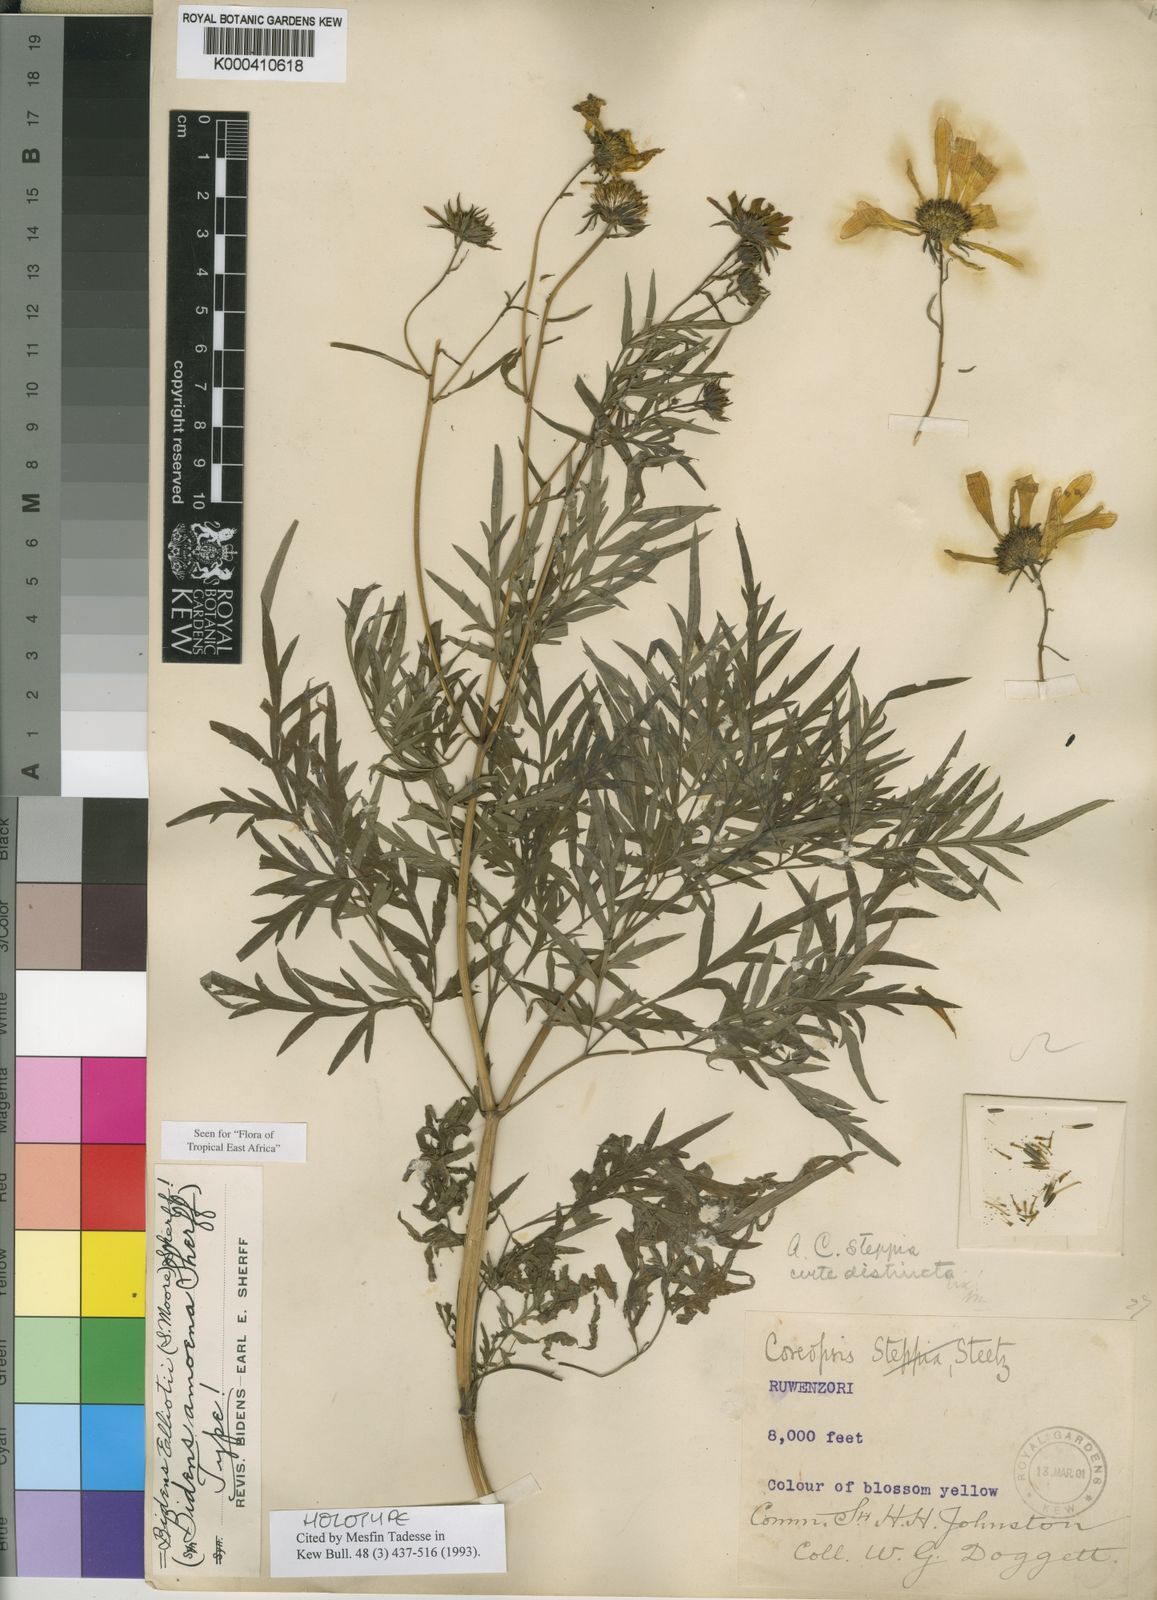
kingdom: Plantae
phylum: Tracheophyta
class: Magnoliopsida
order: Asterales
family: Asteraceae
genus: Bidens
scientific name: Bidens elliotii
